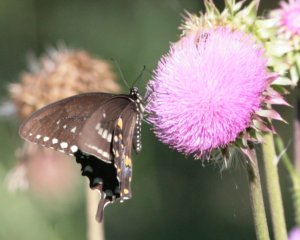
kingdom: Animalia
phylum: Arthropoda
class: Insecta
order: Lepidoptera
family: Papilionidae
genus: Pterourus
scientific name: Pterourus troilus
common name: Spicebush Swallowtail
